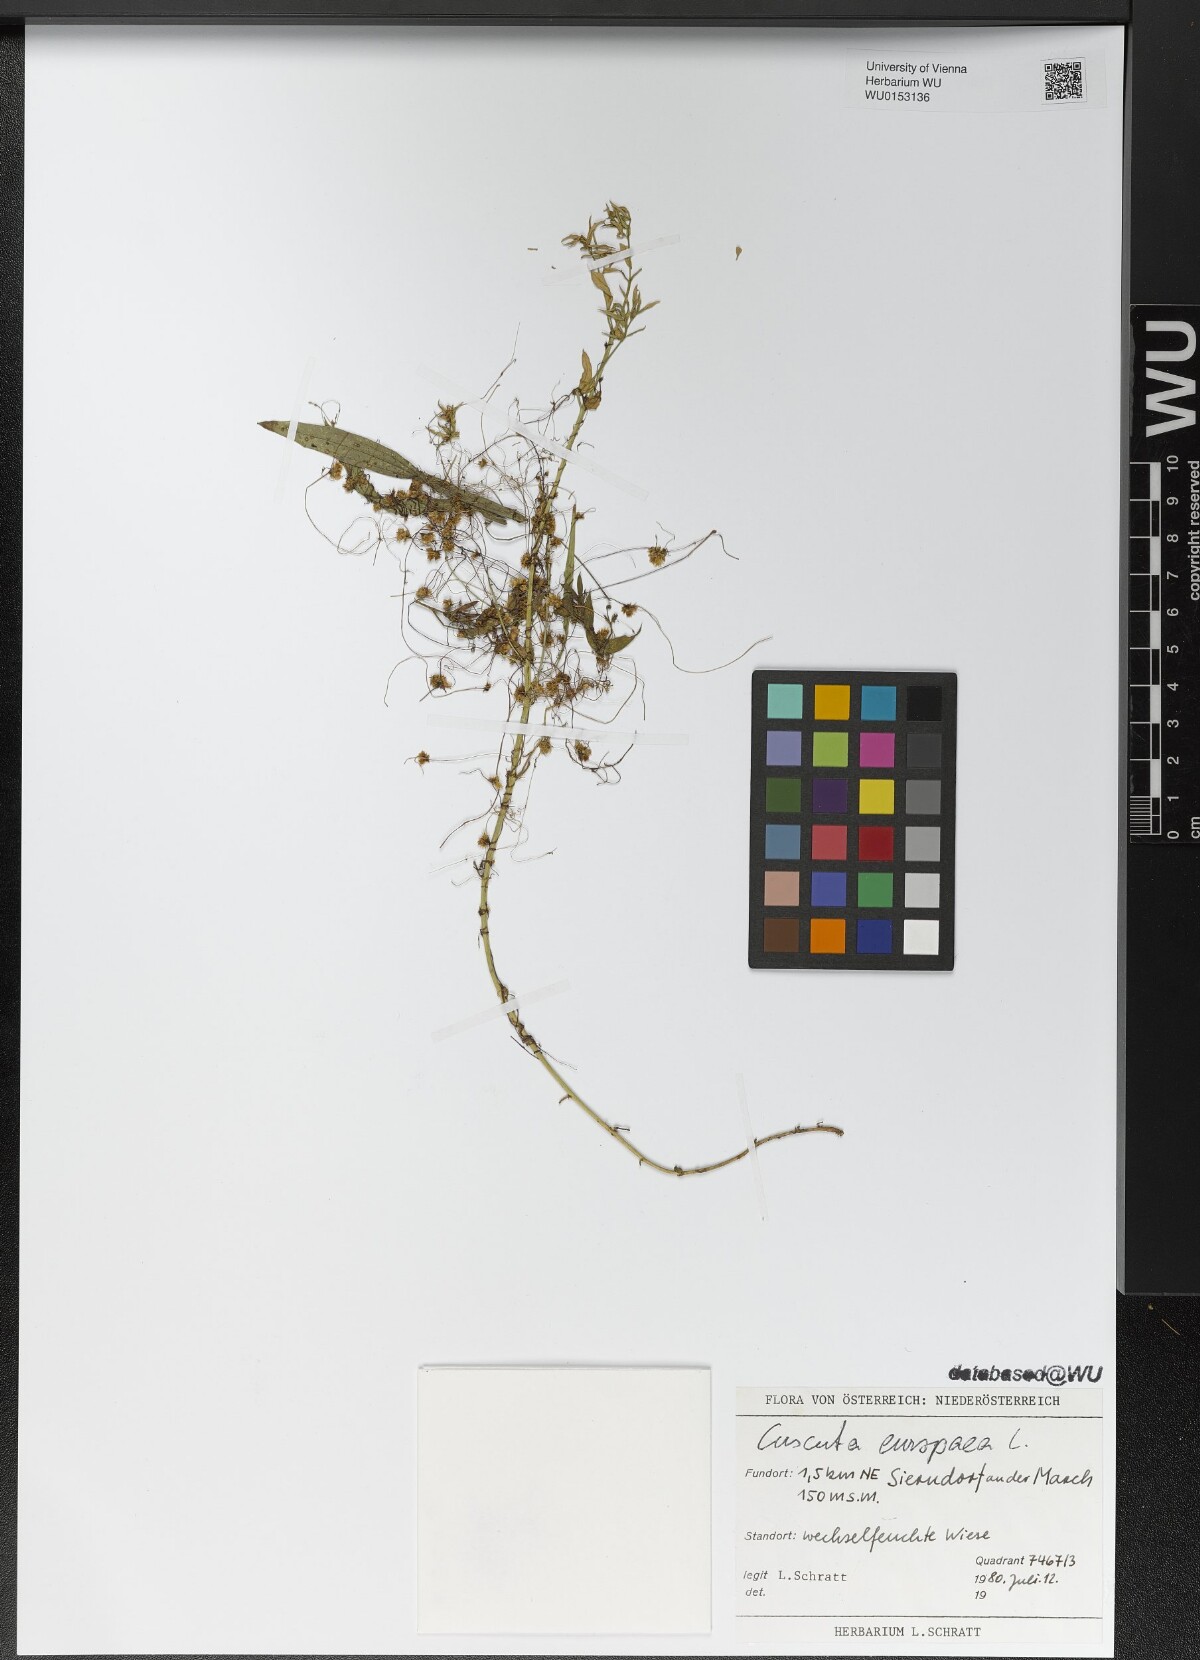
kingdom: Plantae
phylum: Tracheophyta
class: Magnoliopsida
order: Solanales
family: Convolvulaceae
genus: Cuscuta
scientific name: Cuscuta europaea
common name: Greater dodder
